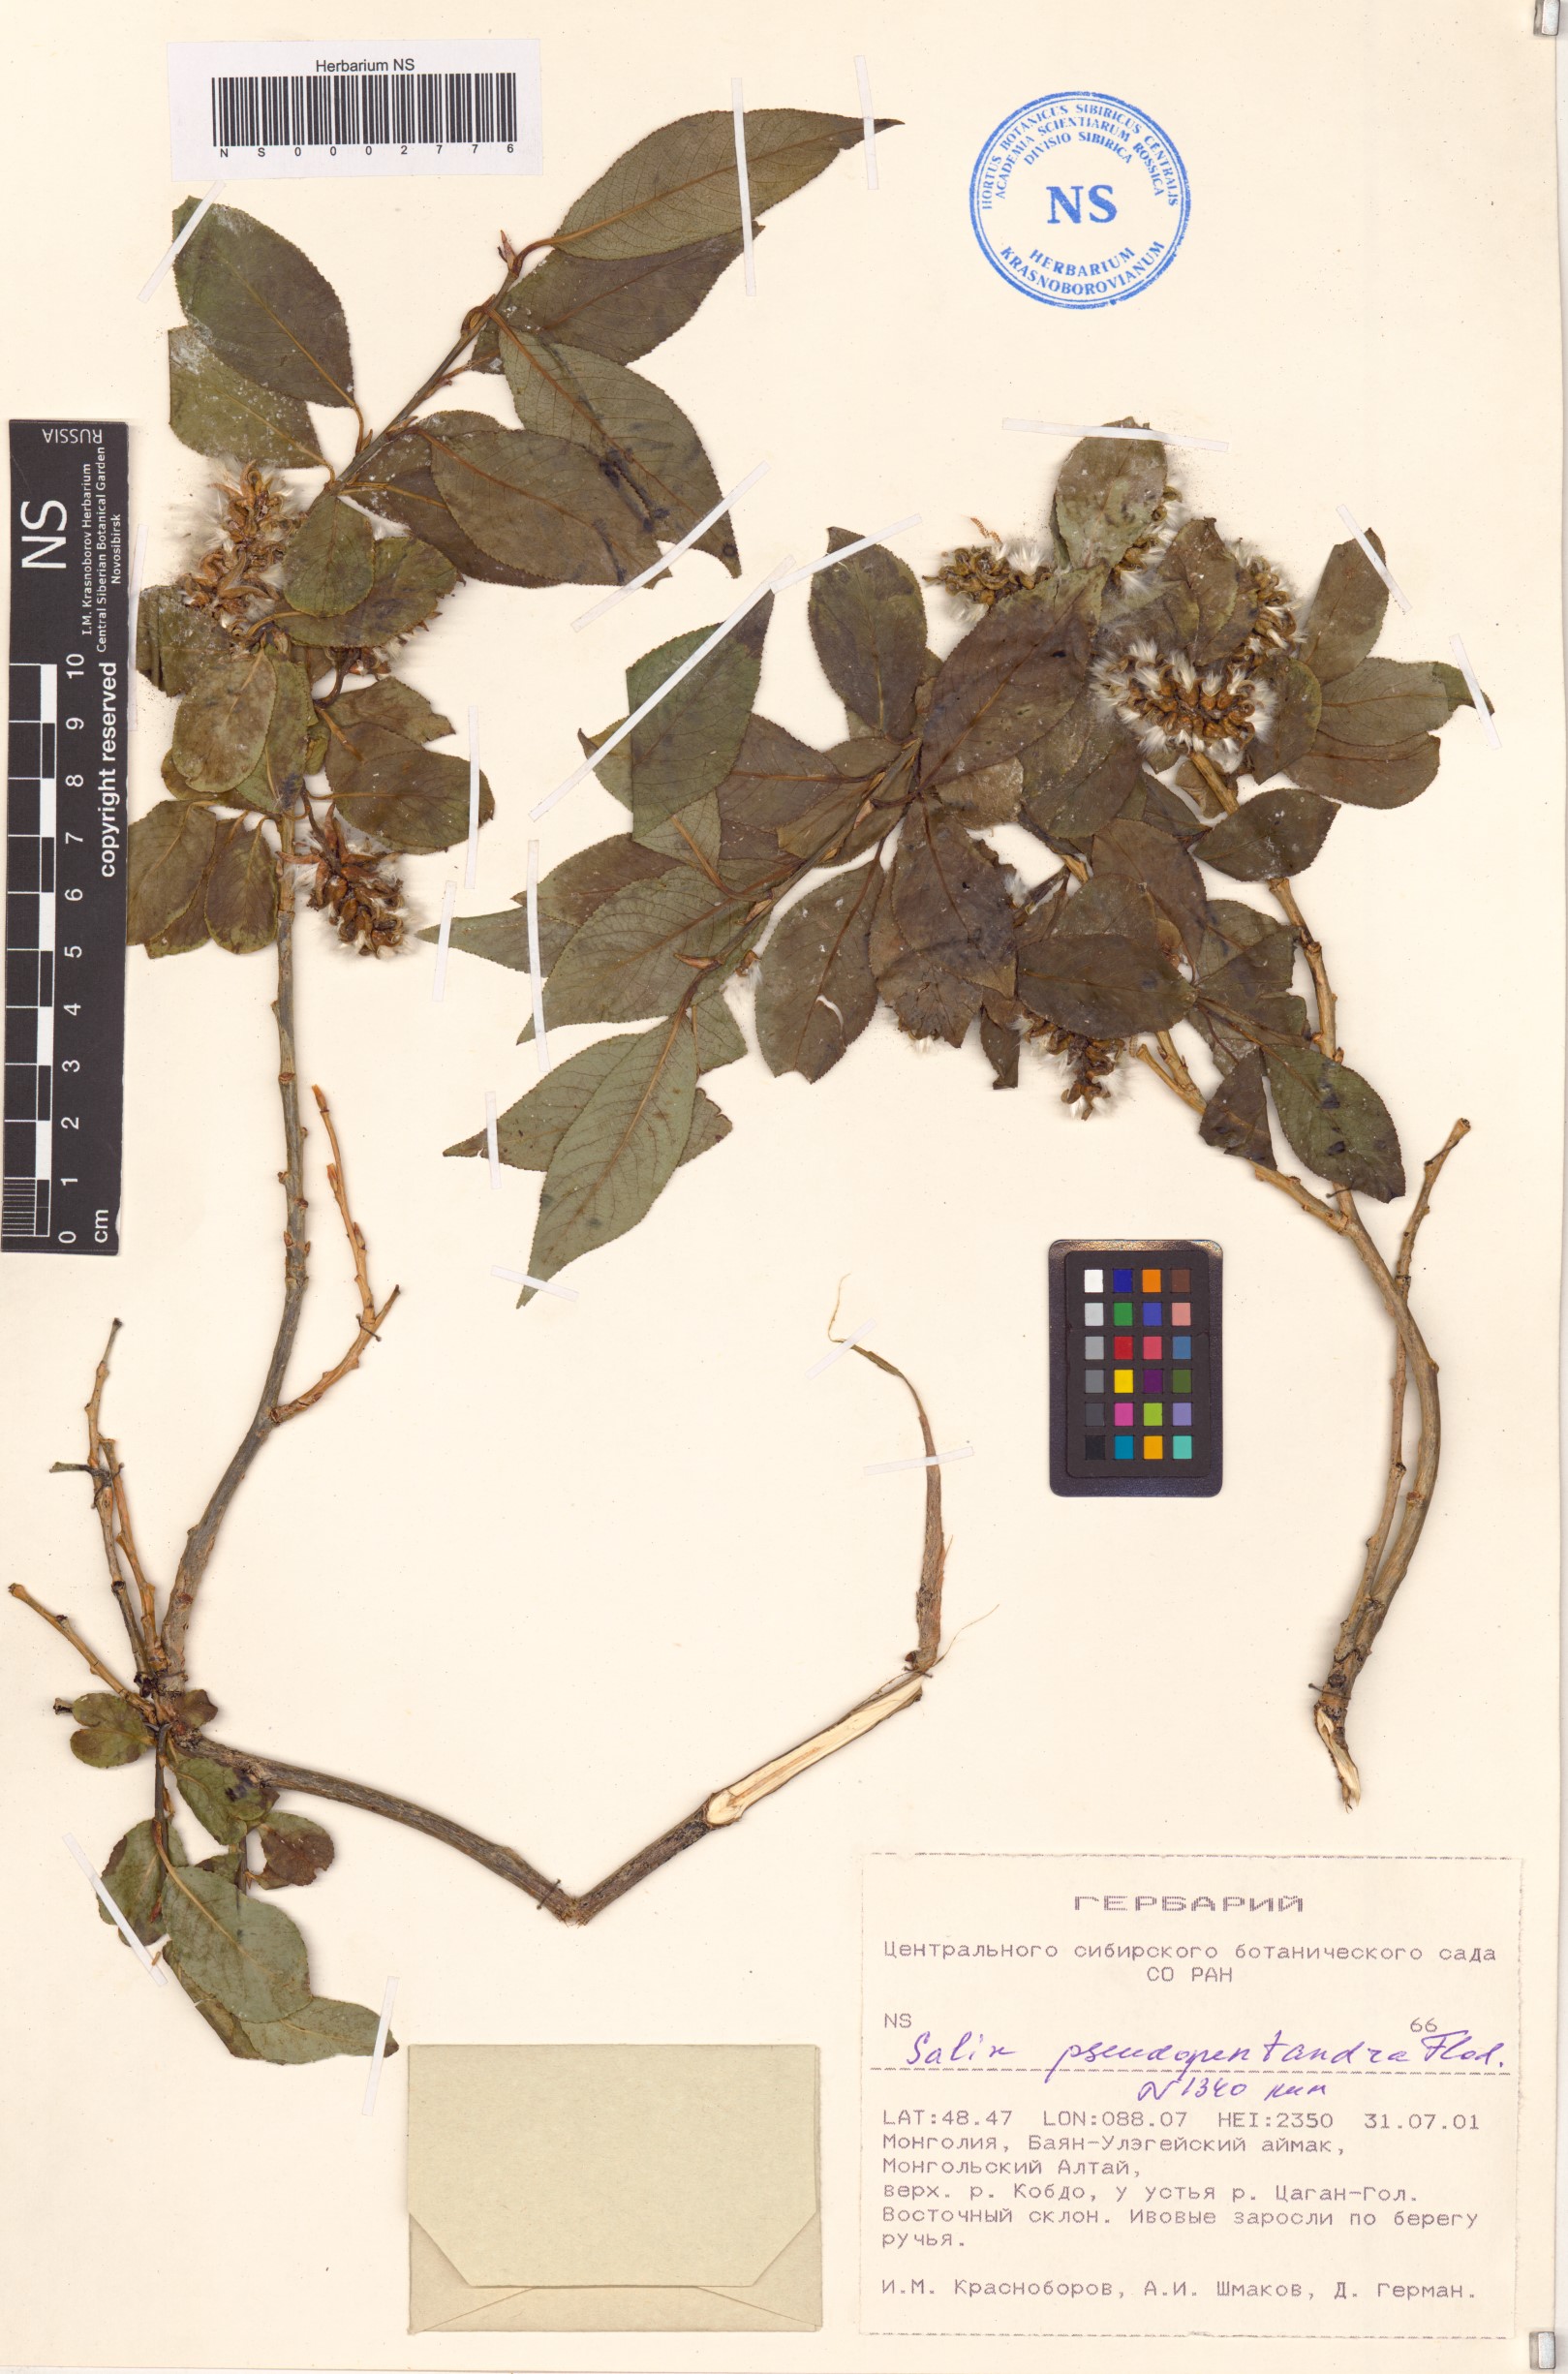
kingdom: Plantae
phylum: Tracheophyta
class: Magnoliopsida
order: Malpighiales
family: Salicaceae
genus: Salix
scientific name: Salix pseudopentandra
